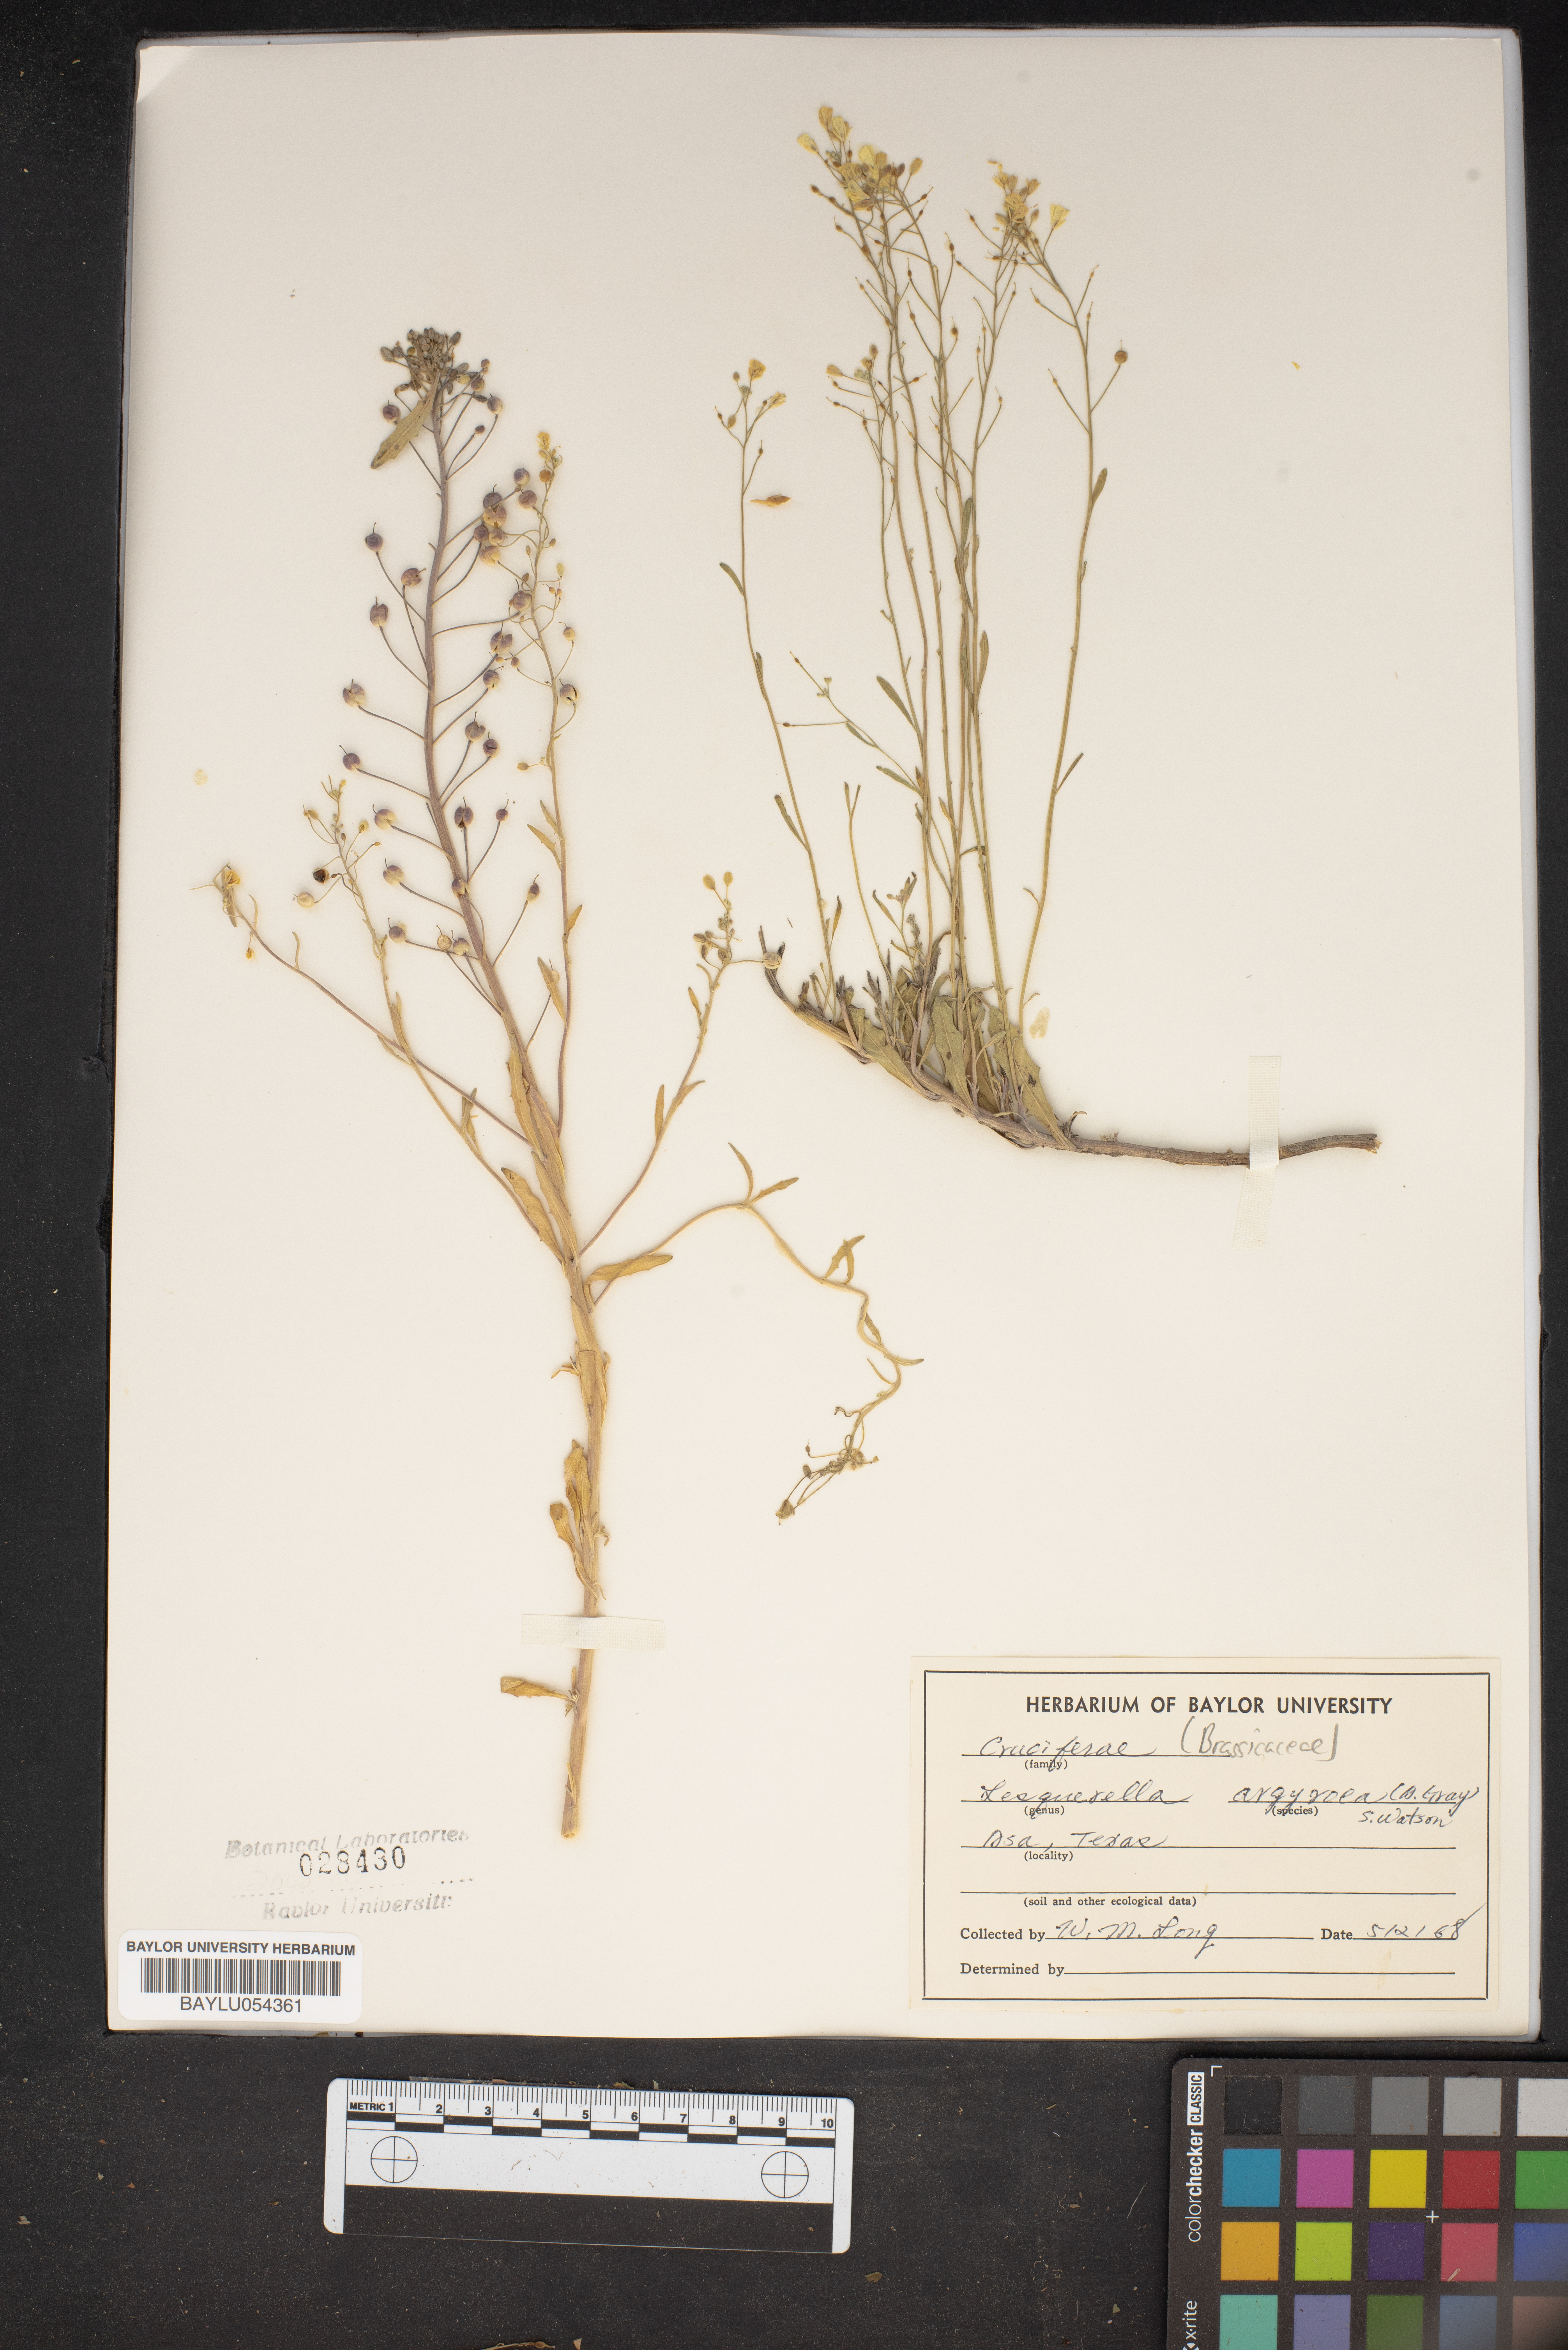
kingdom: Plantae
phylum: Tracheophyta
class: Magnoliopsida
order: Brassicales
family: Brassicaceae
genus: Physaria
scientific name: Physaria argyraea
